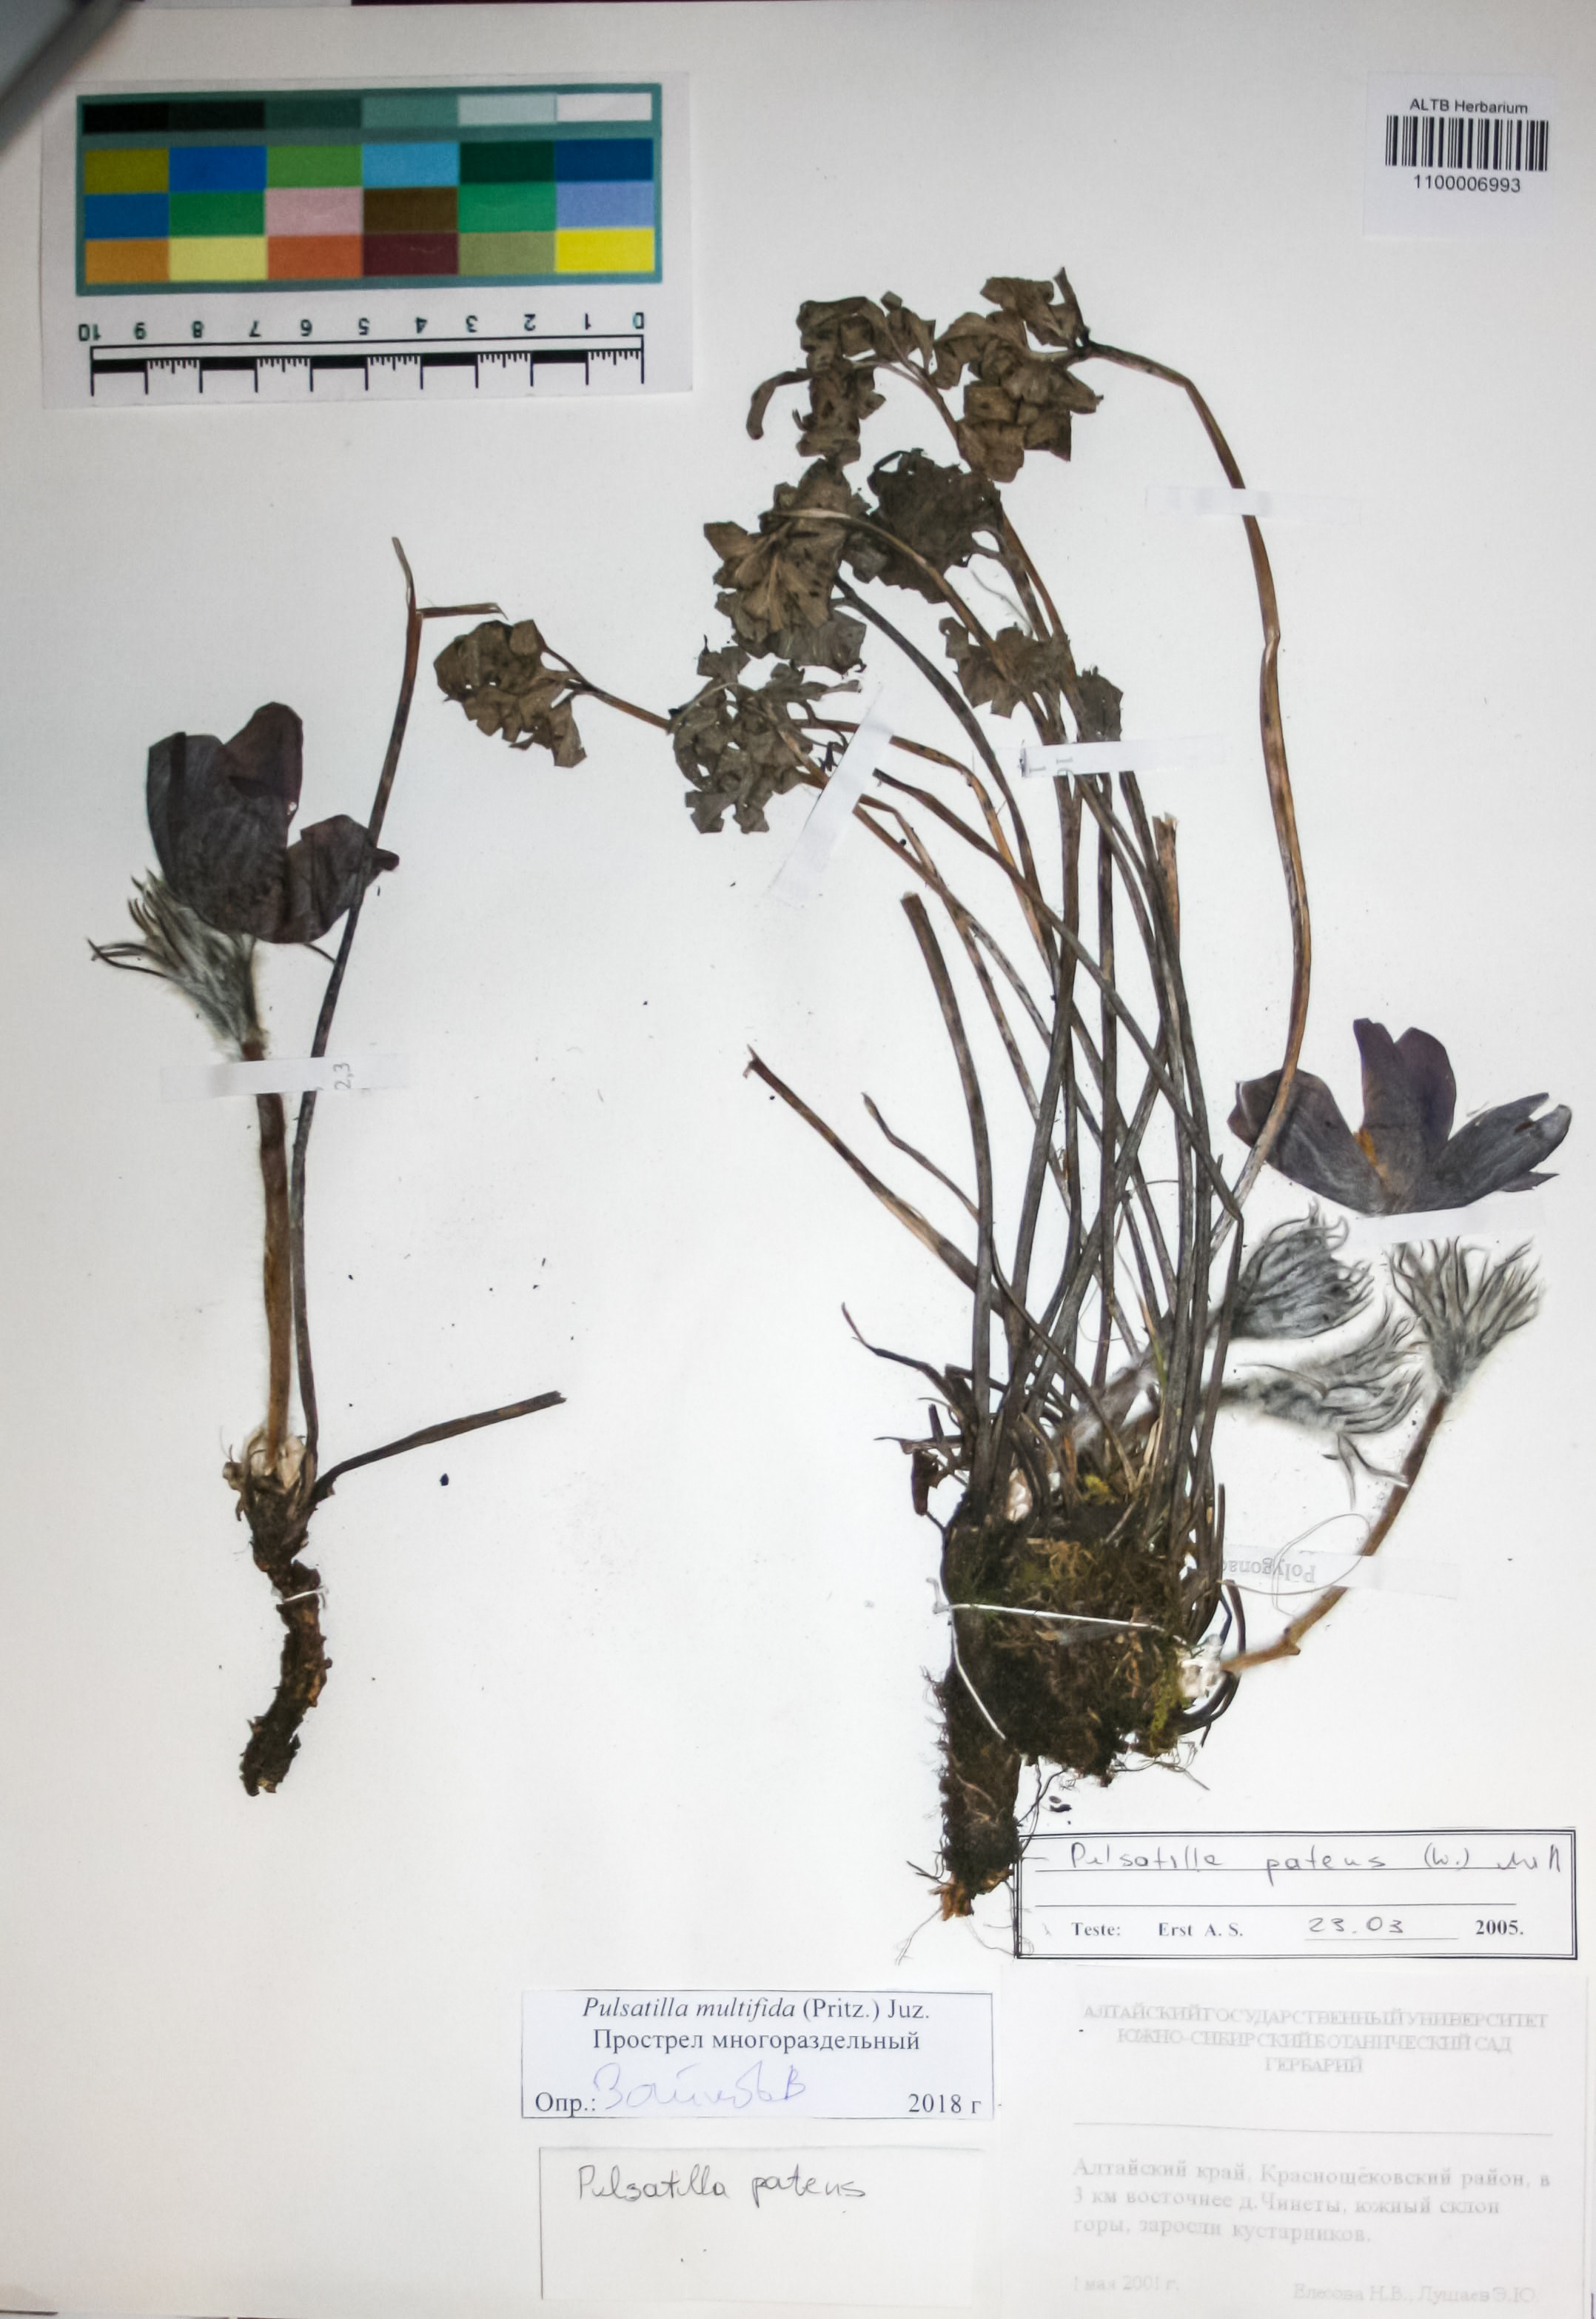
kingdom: Plantae
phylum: Tracheophyta
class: Magnoliopsida
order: Ranunculales
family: Ranunculaceae
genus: Pulsatilla
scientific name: Pulsatilla patens
